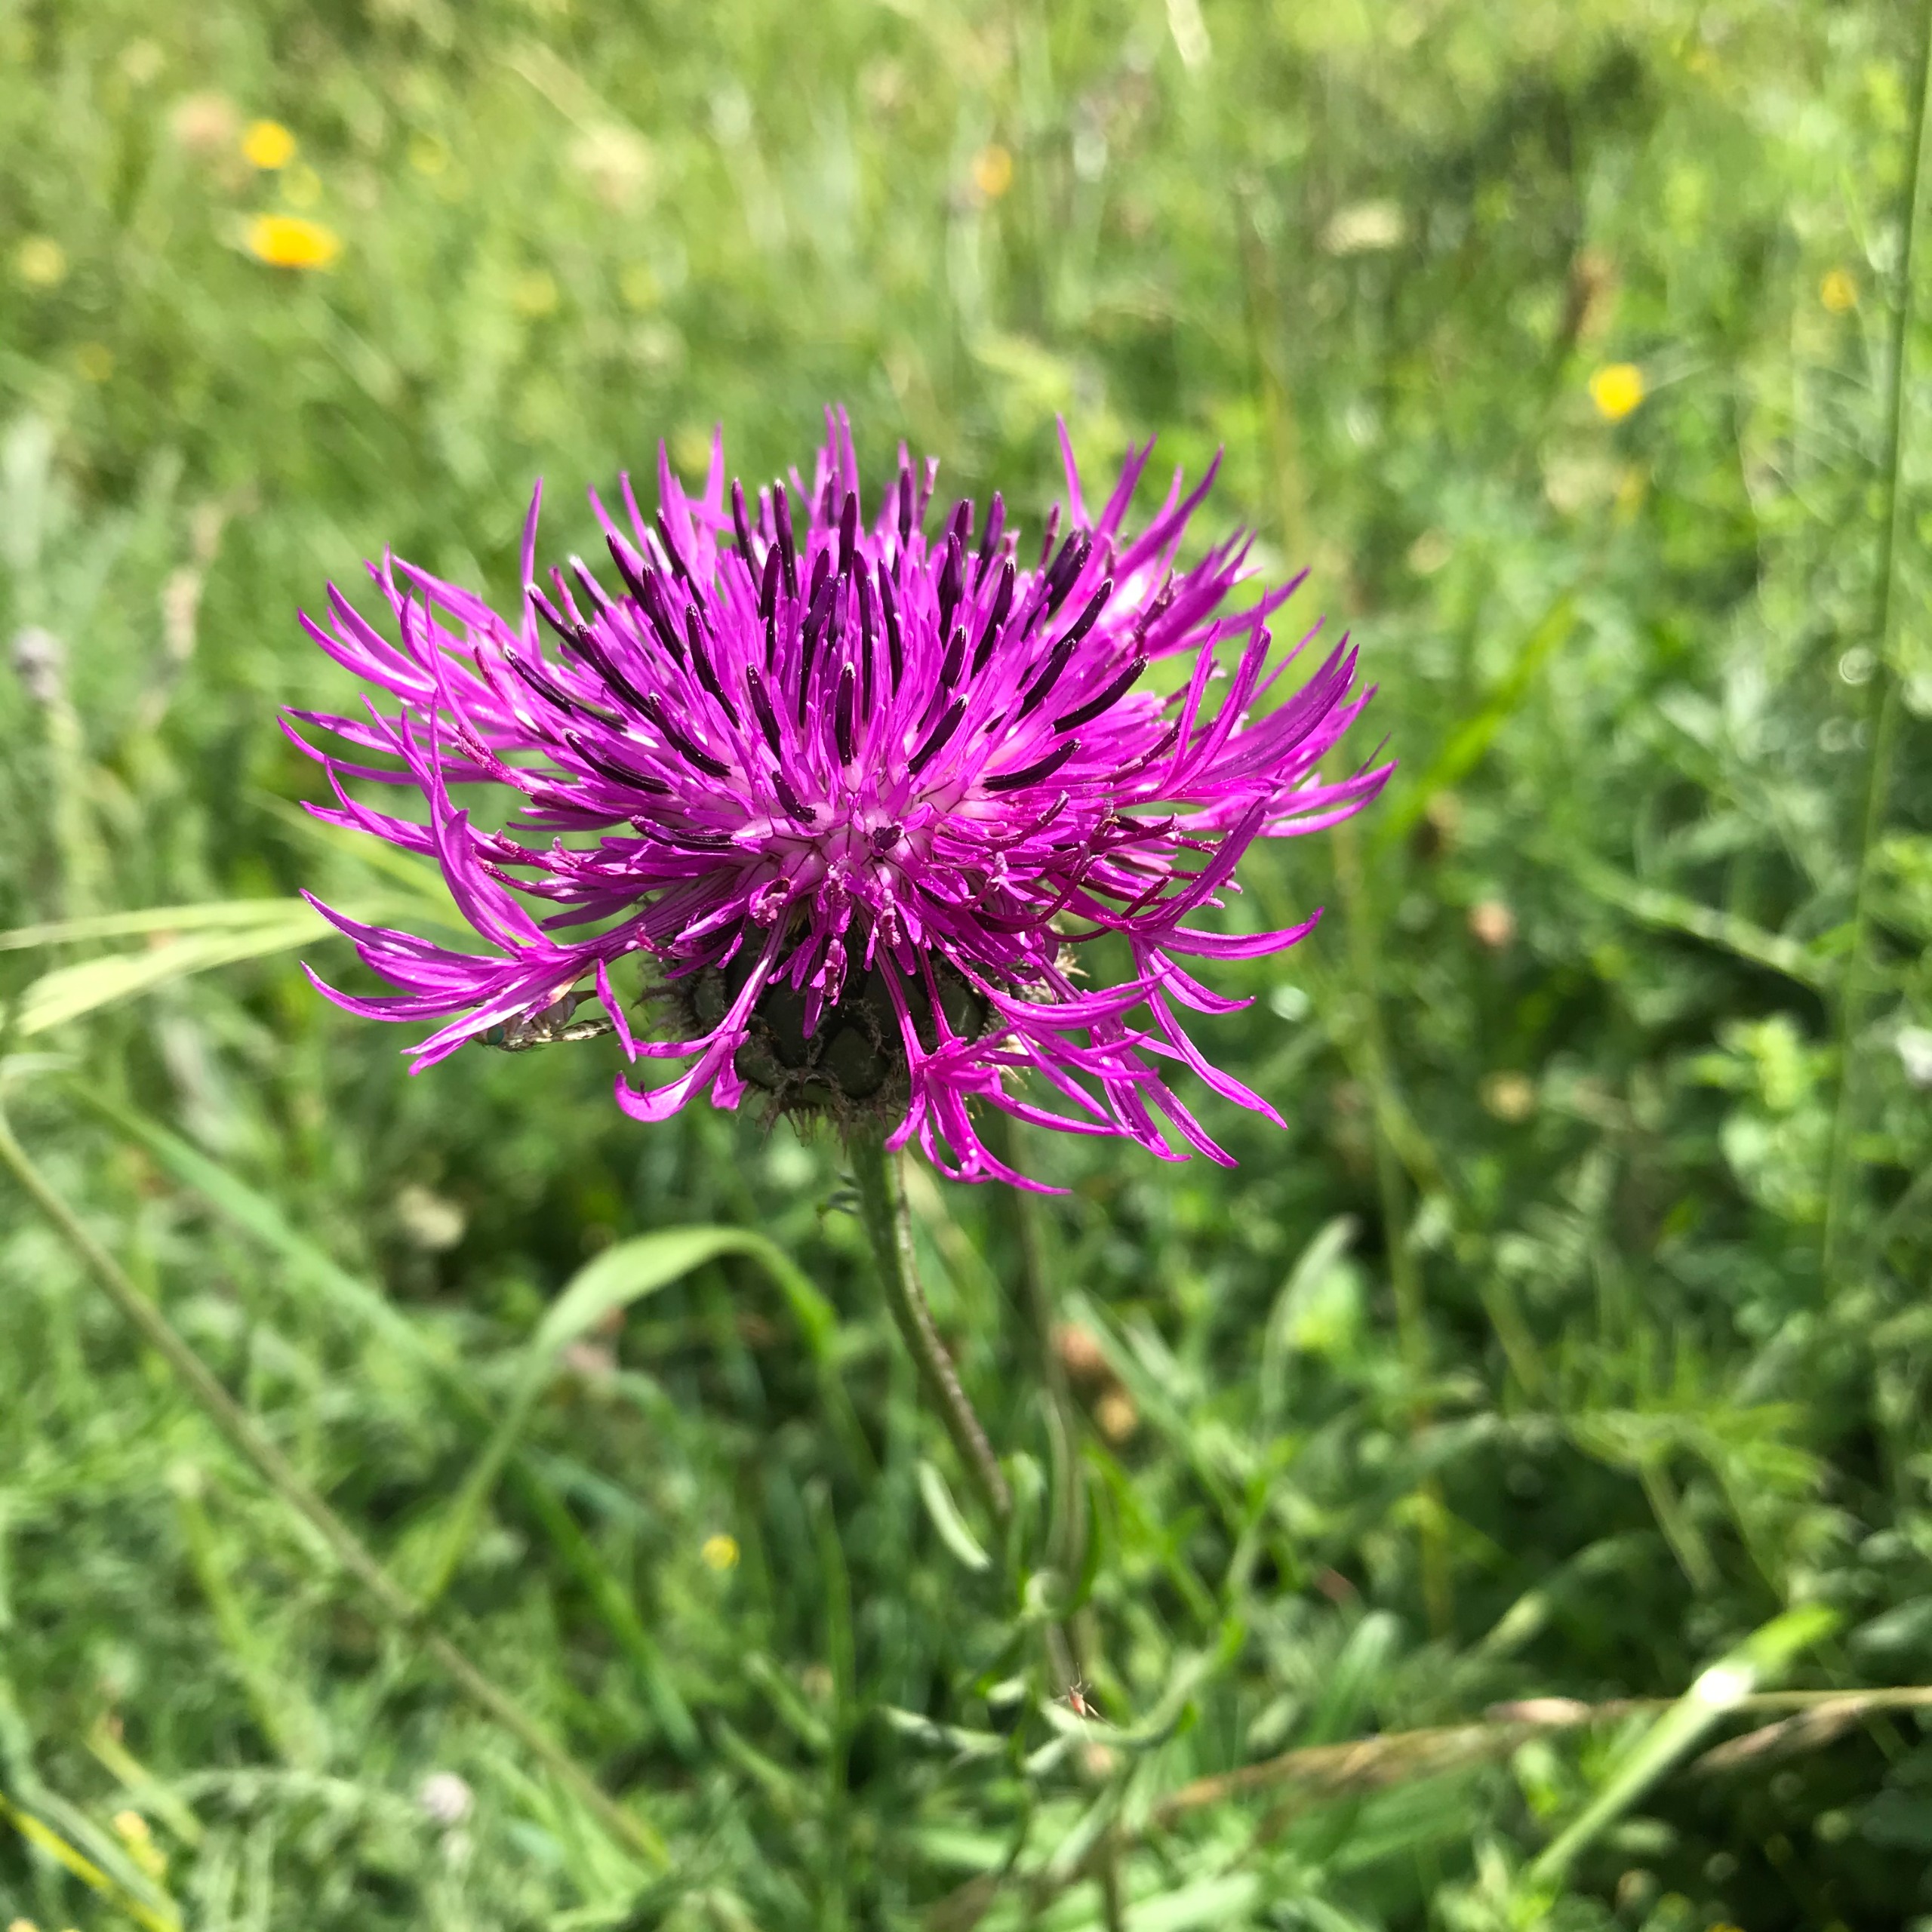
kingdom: Plantae
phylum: Tracheophyta
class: Magnoliopsida
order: Asterales
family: Asteraceae
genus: Centaurea
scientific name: Centaurea scabiosa
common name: Stor knopurt
